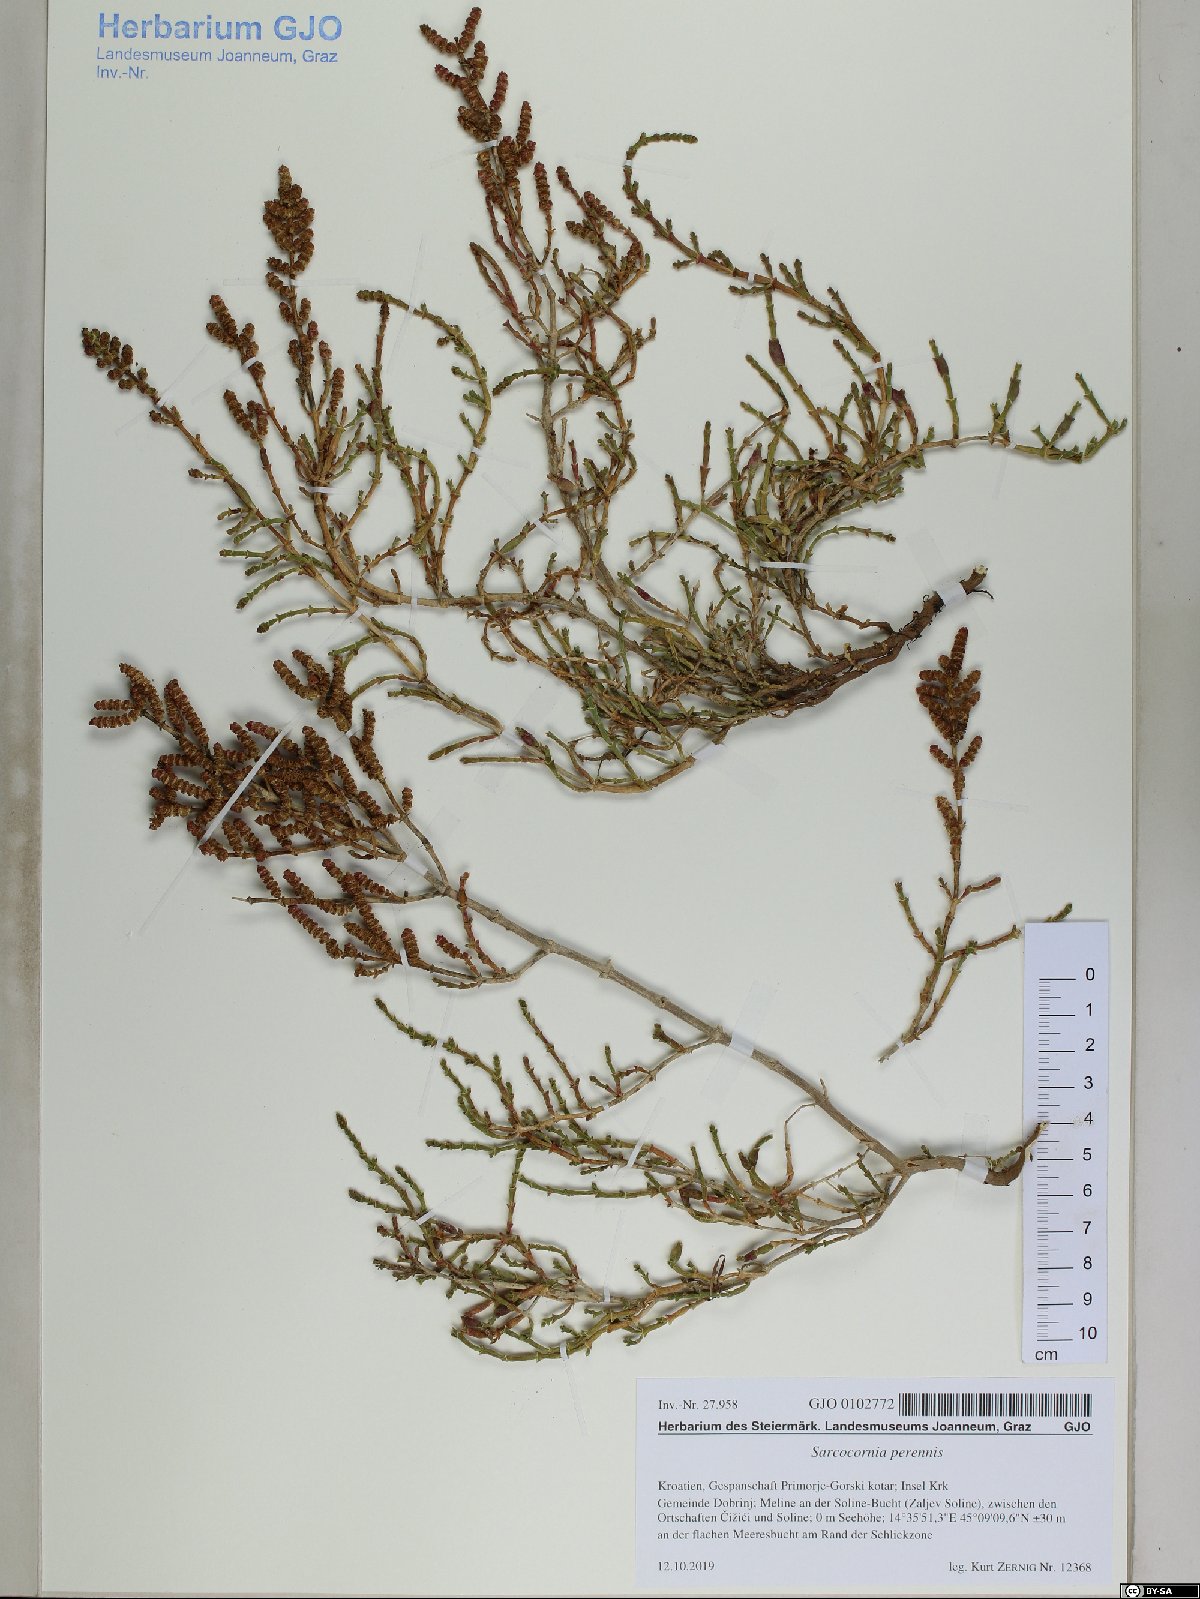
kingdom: Plantae
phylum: Tracheophyta
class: Magnoliopsida
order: Caryophyllales
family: Amaranthaceae
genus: Salicornia
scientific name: Salicornia perennis
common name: Chicken claws
